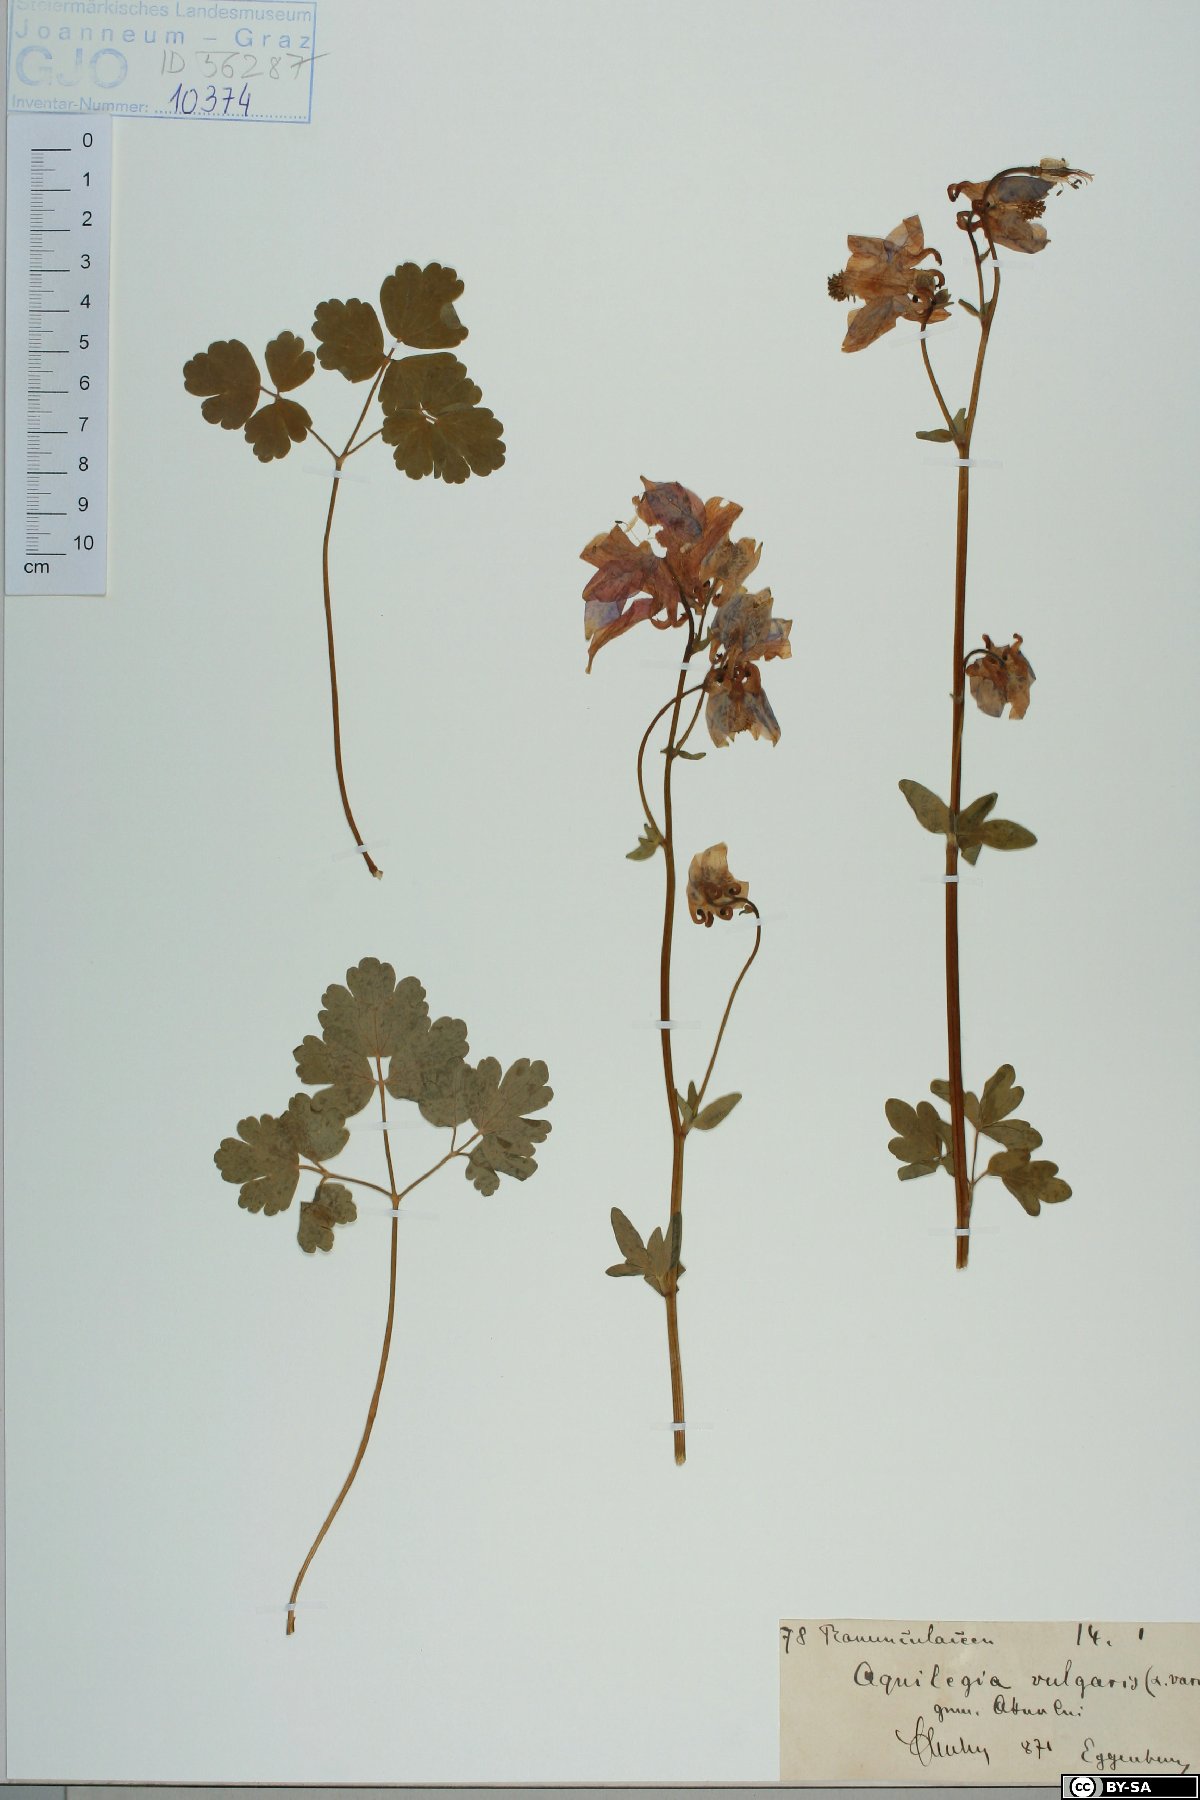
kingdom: Plantae
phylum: Tracheophyta
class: Magnoliopsida
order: Ranunculales
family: Ranunculaceae
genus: Aquilegia
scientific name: Aquilegia vulgaris
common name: Columbine
